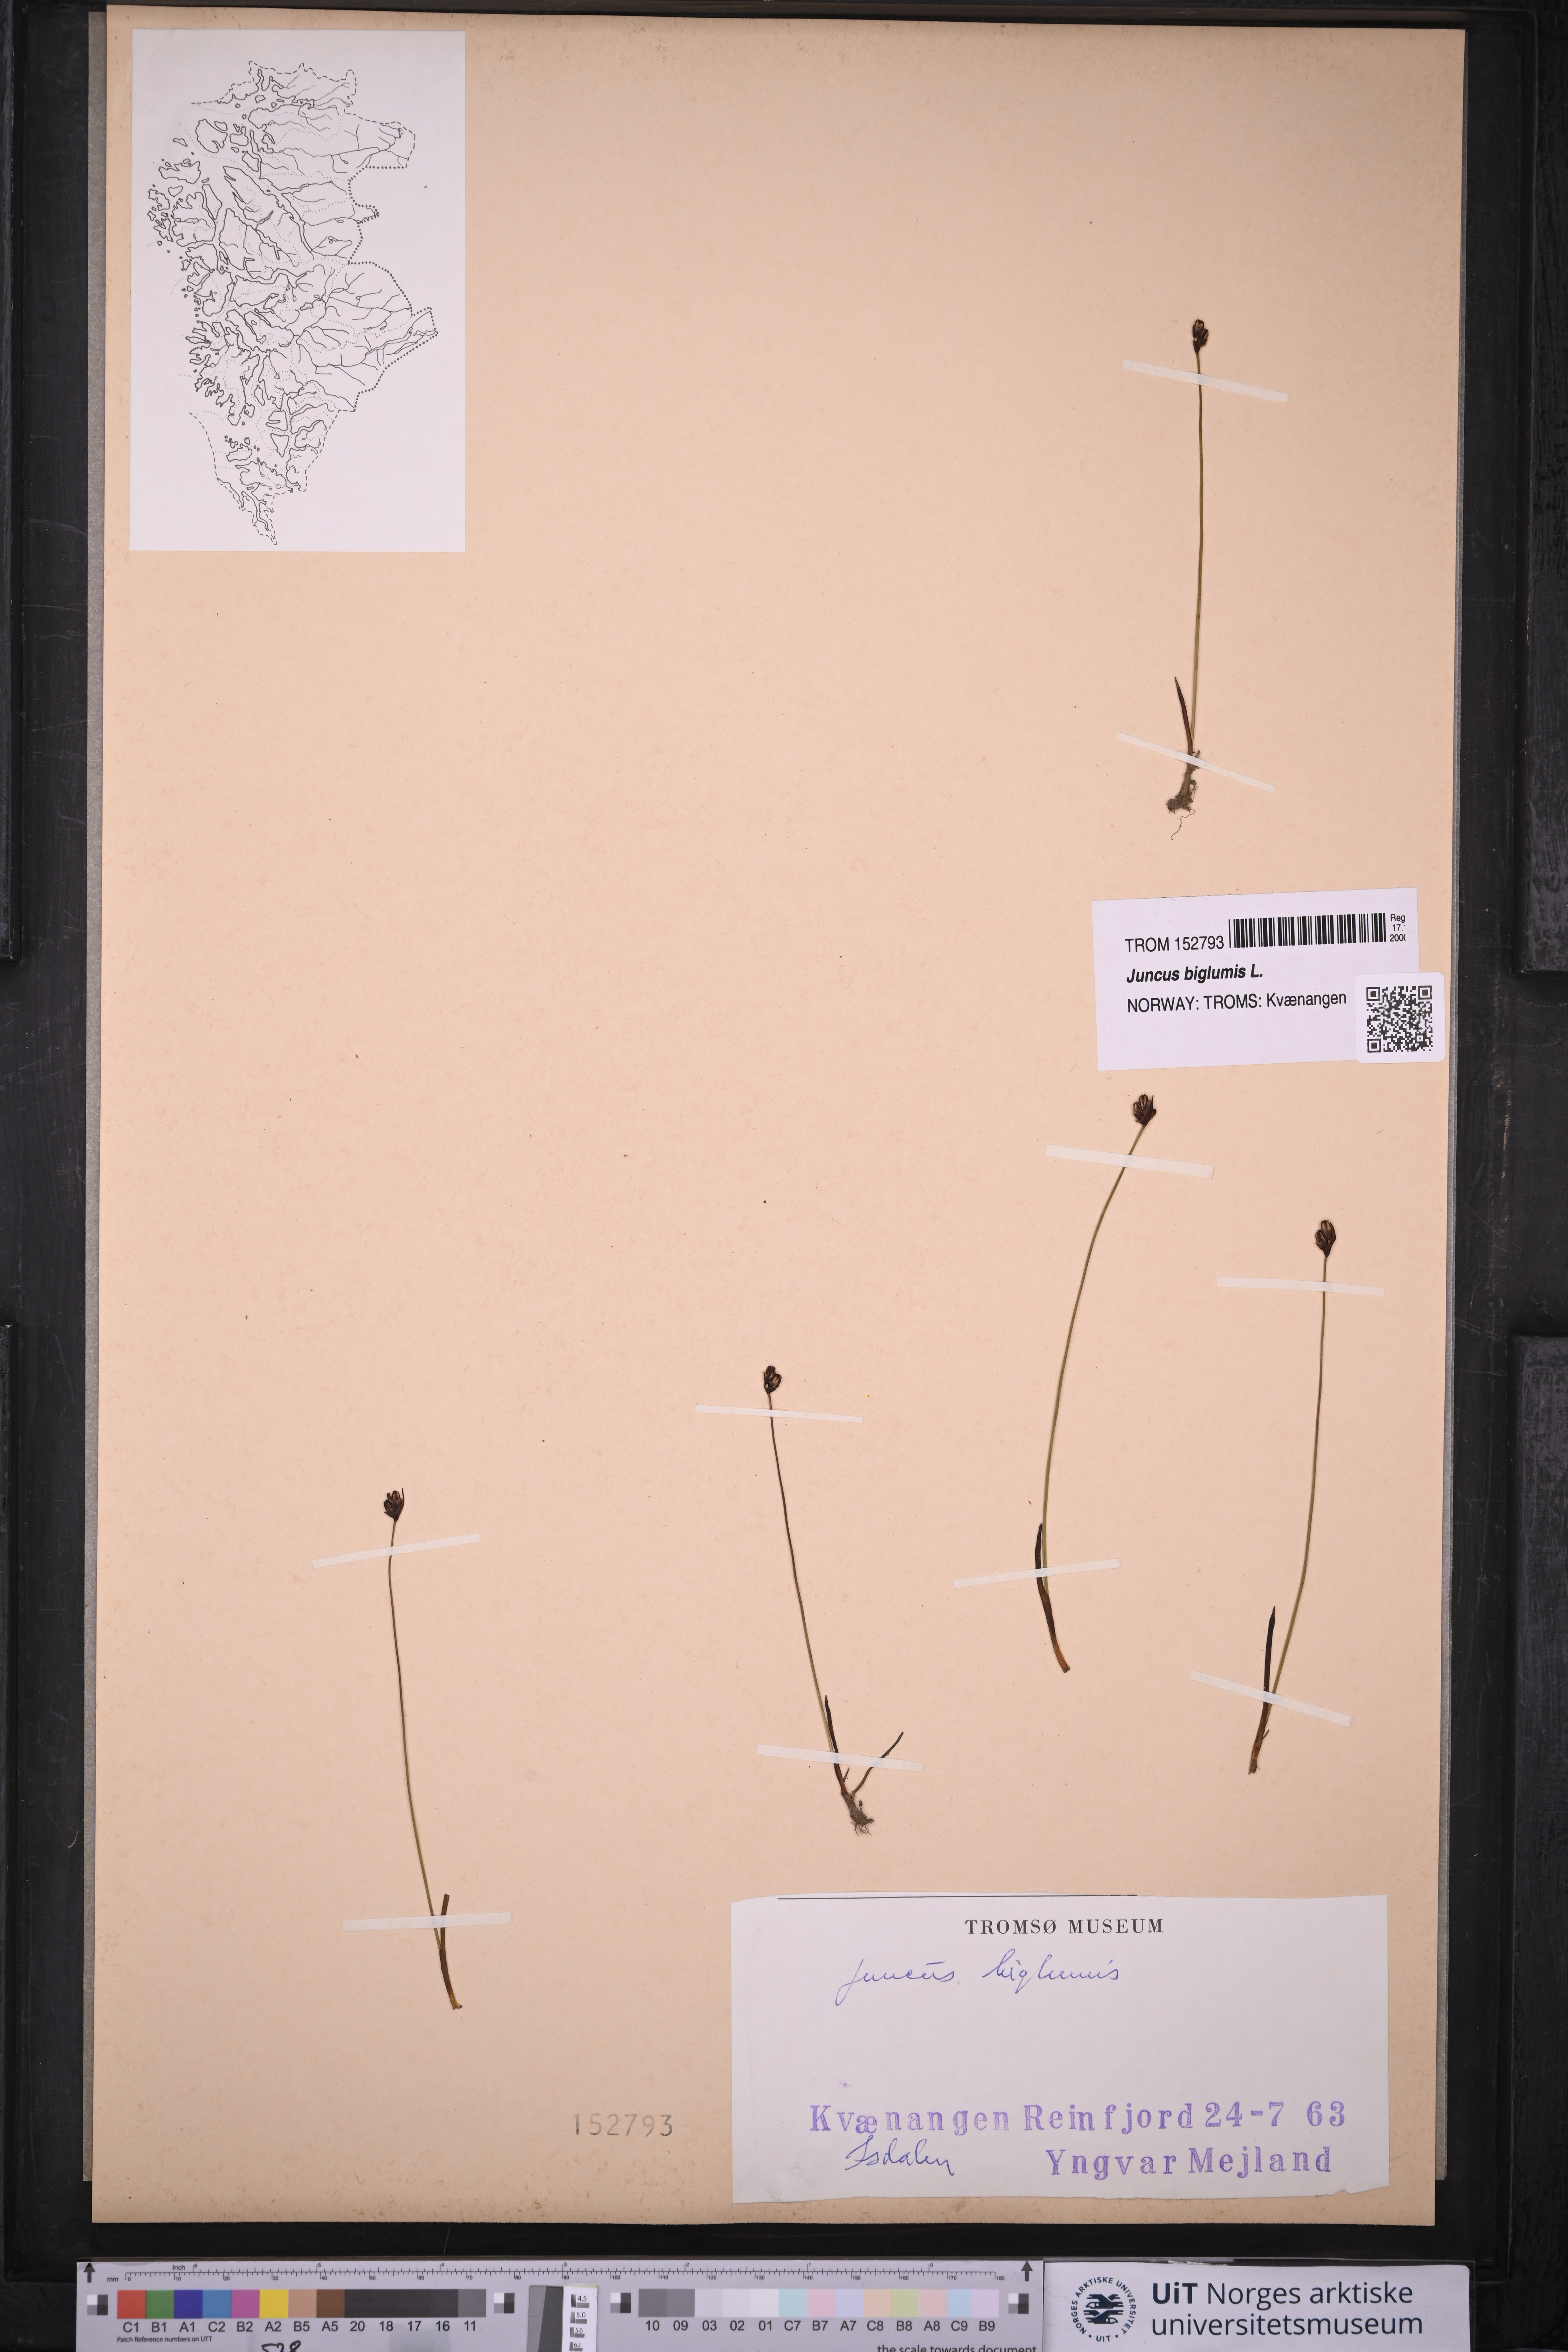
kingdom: Plantae
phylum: Tracheophyta
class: Liliopsida
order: Poales
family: Juncaceae
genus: Juncus
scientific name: Juncus biglumis
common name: Two-flowered rush
